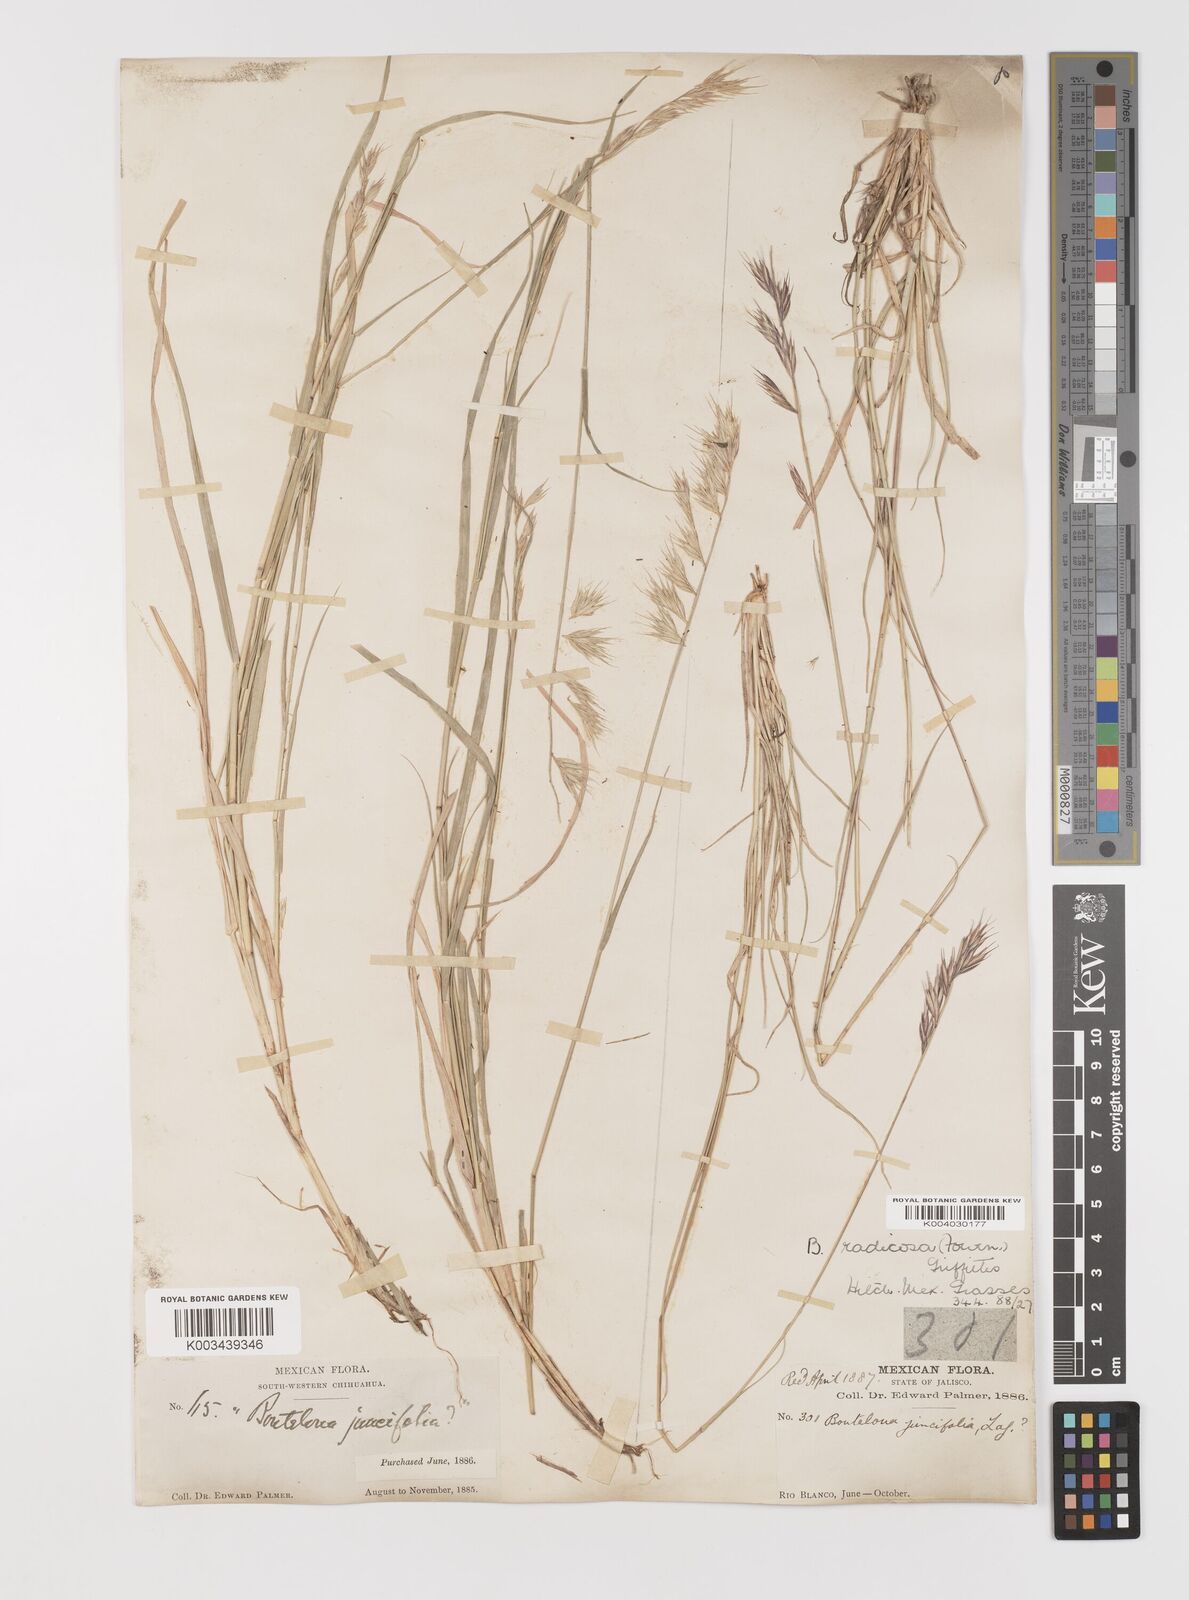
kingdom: Plantae
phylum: Tracheophyta
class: Liliopsida
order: Poales
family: Poaceae
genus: Bouteloua
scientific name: Bouteloua radicosa
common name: Purple grama
